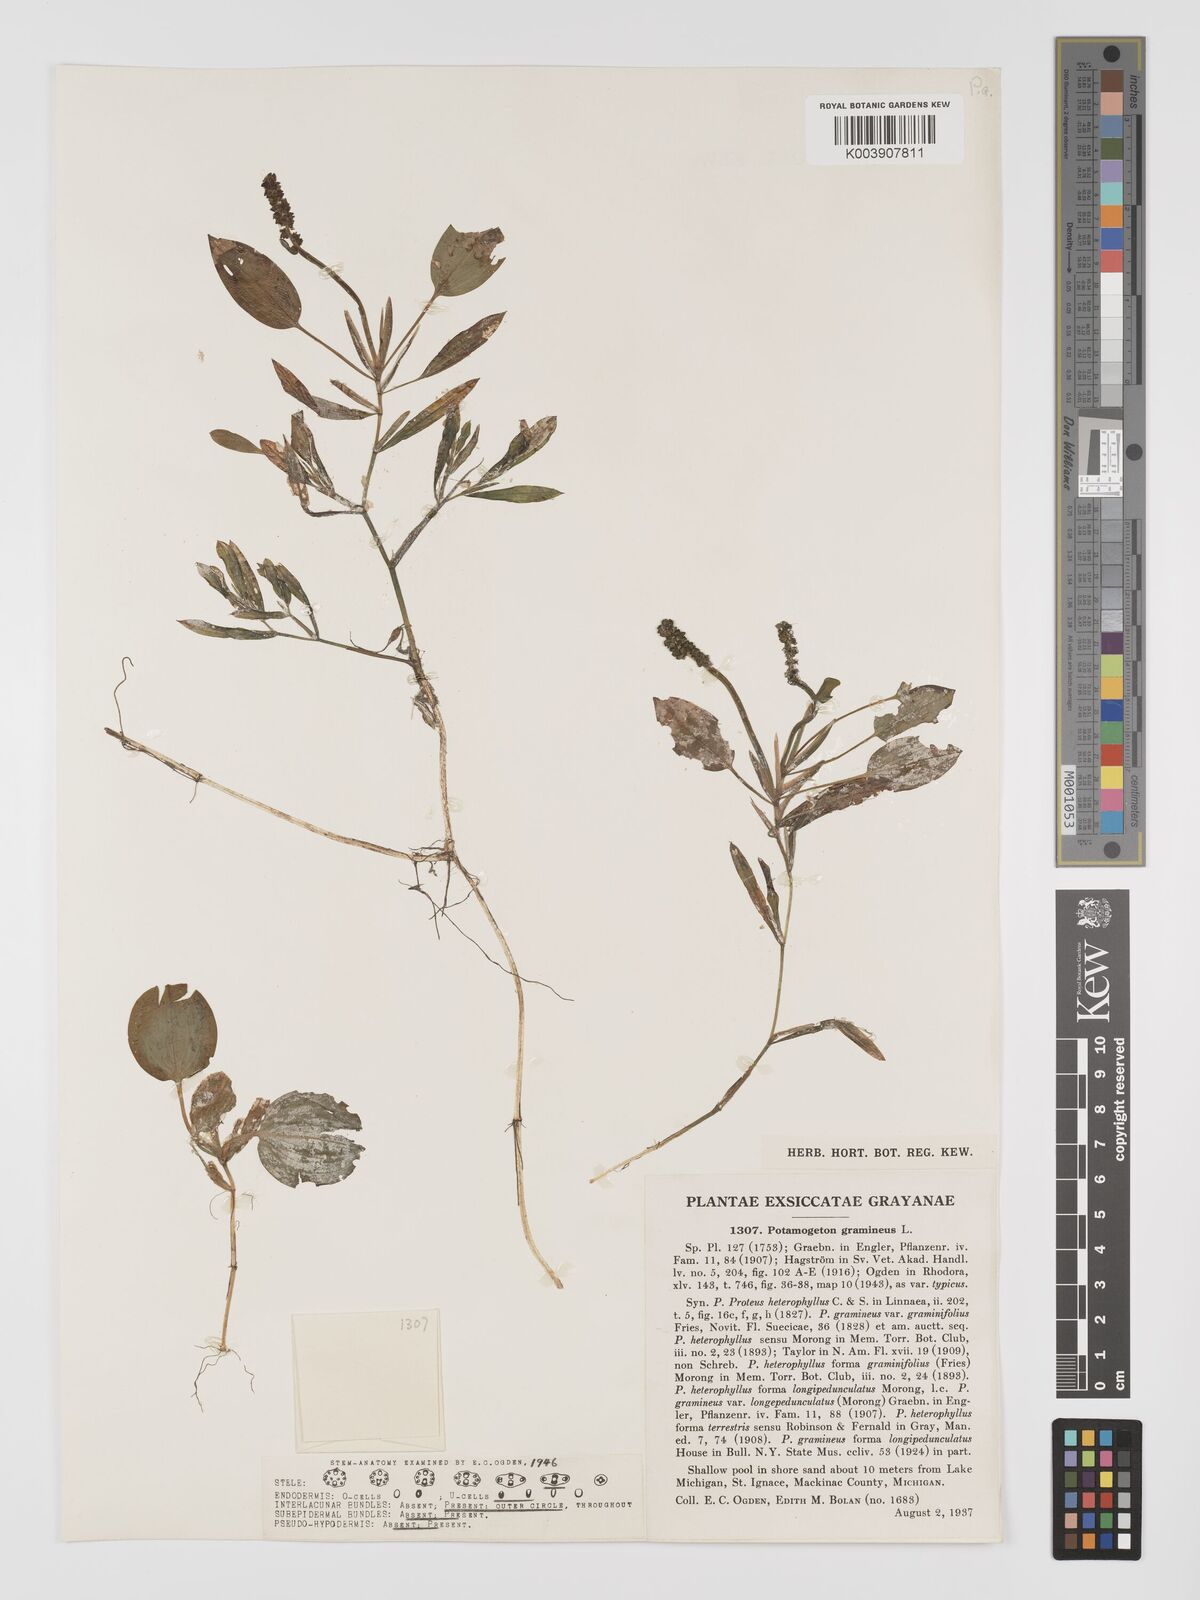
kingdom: Plantae
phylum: Tracheophyta
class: Liliopsida
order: Alismatales
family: Potamogetonaceae
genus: Potamogeton
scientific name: Potamogeton gramineus
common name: Various-leaved pondweed
